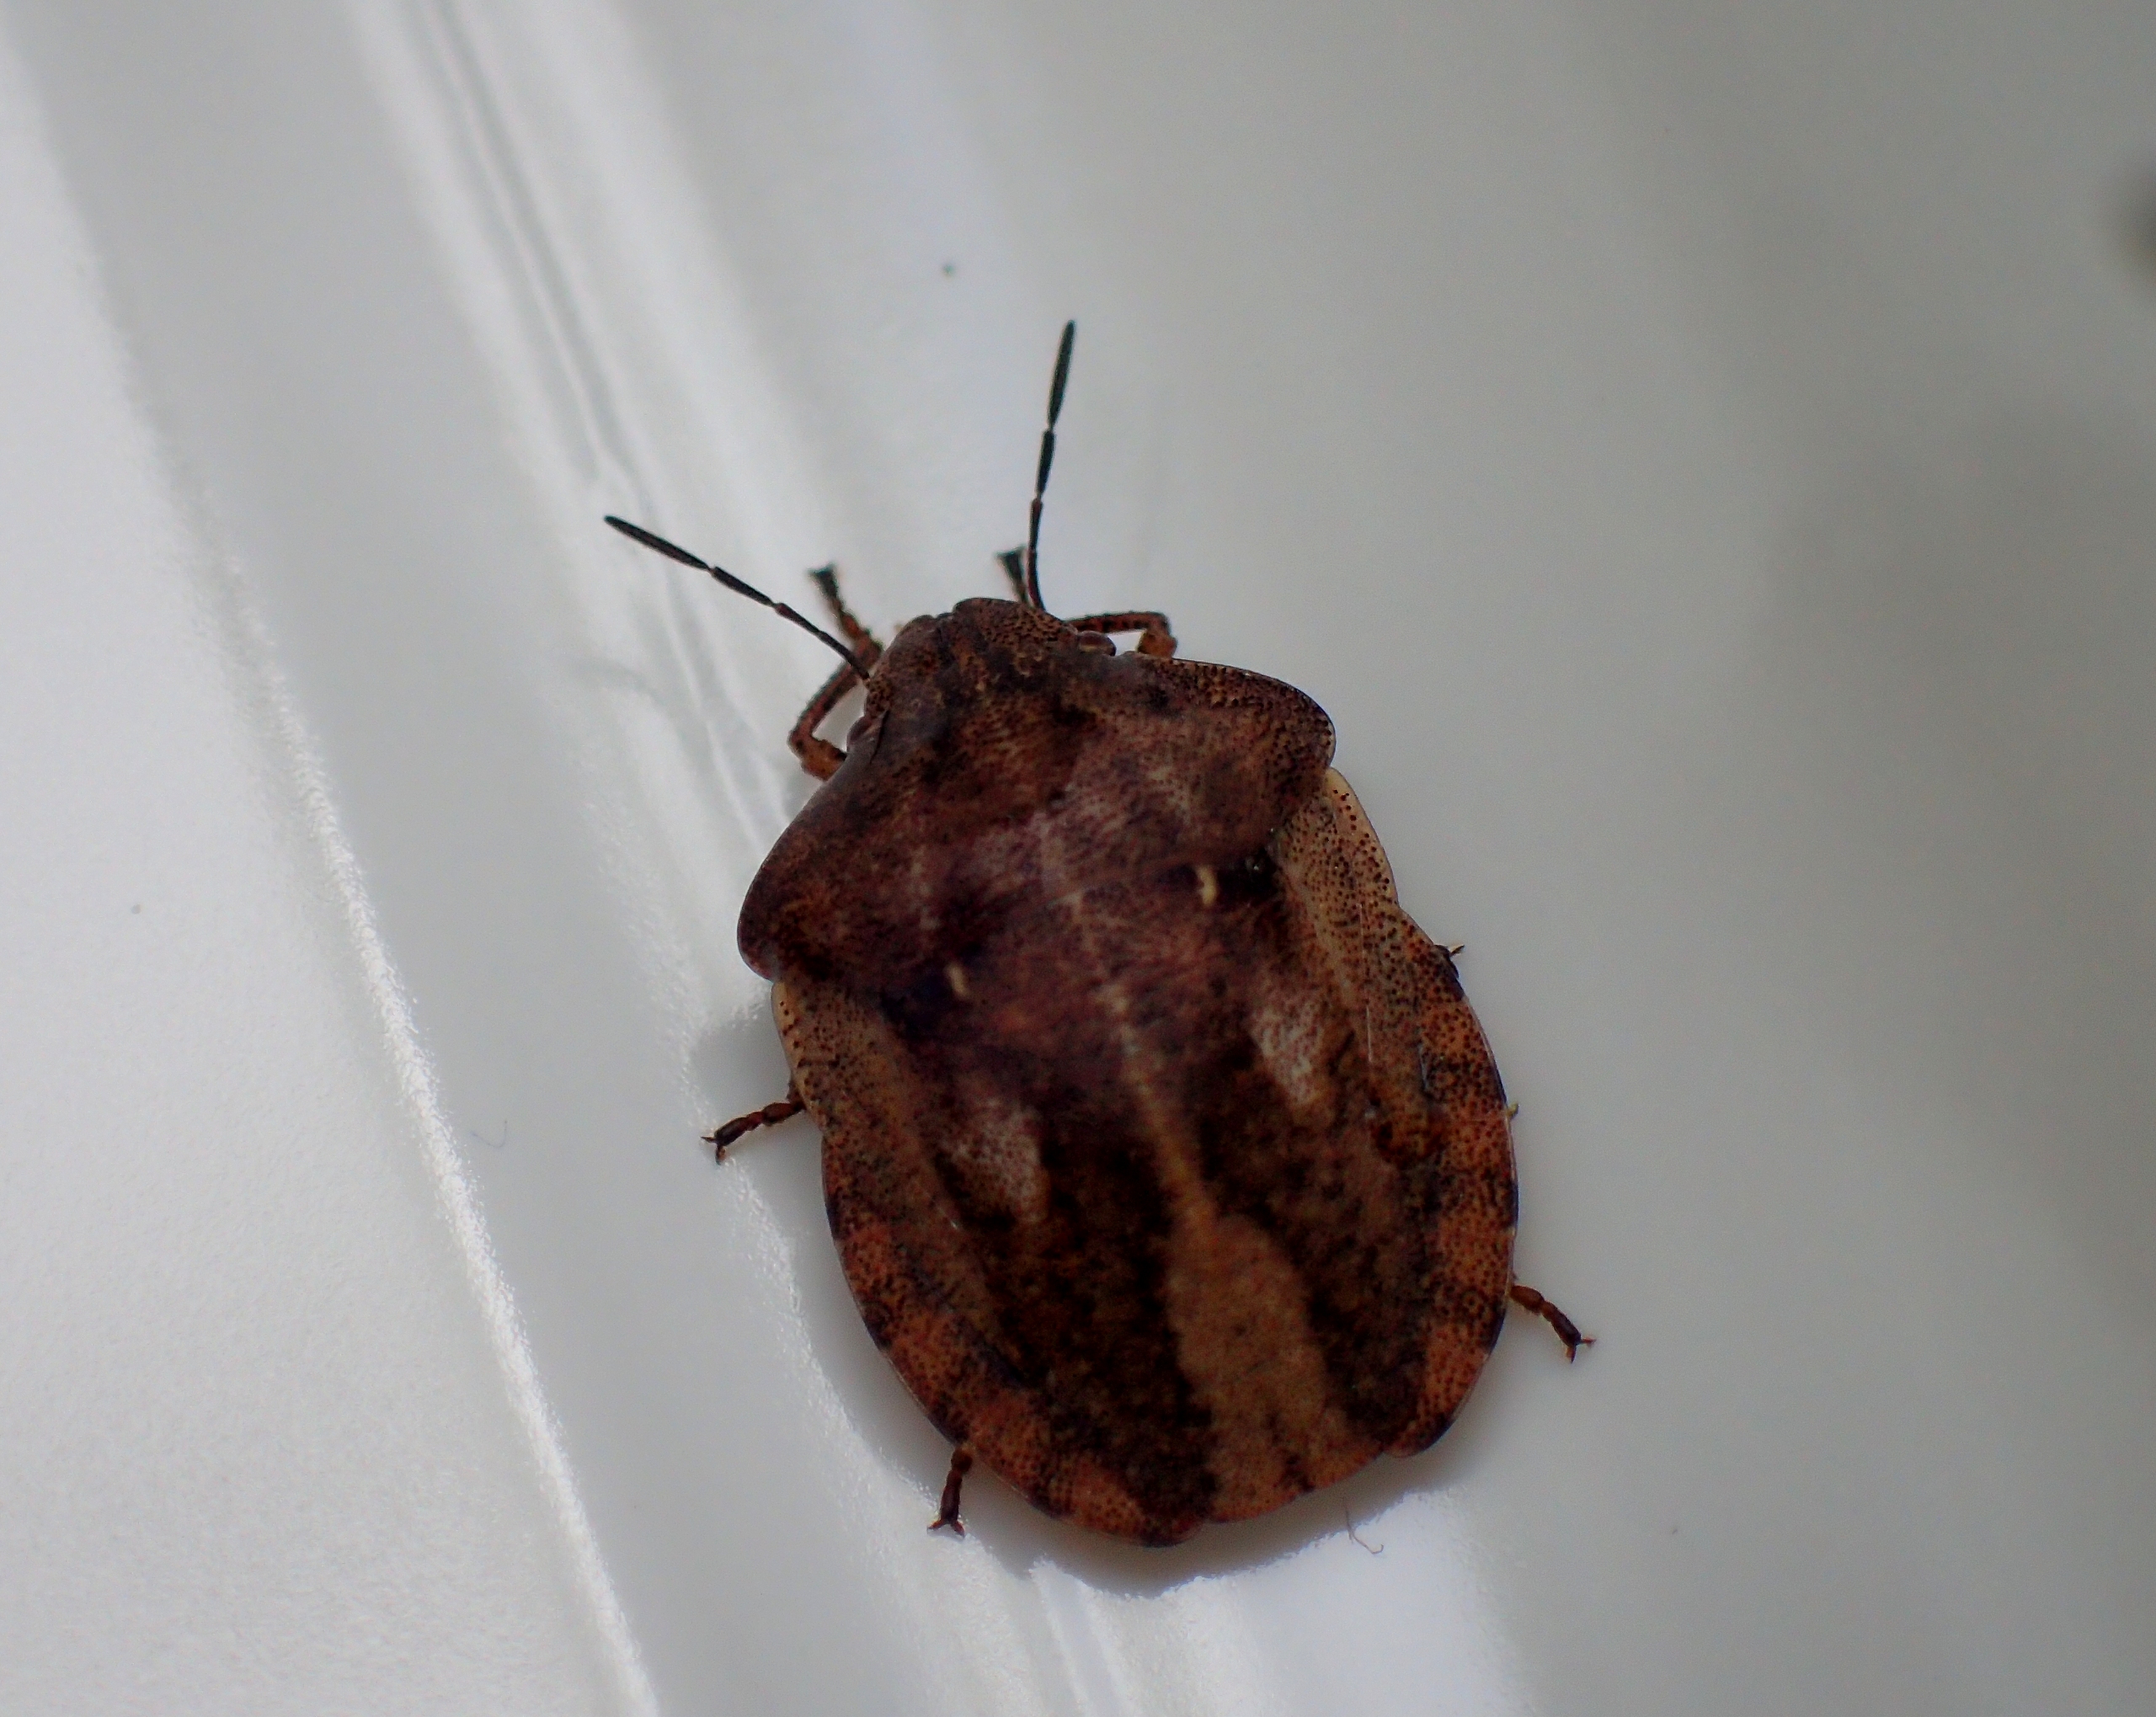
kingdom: Animalia
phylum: Arthropoda
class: Insecta
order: Hemiptera
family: Scutelleridae
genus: Eurygaster
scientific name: Eurygaster testudinaria
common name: Starskjoldtæge
